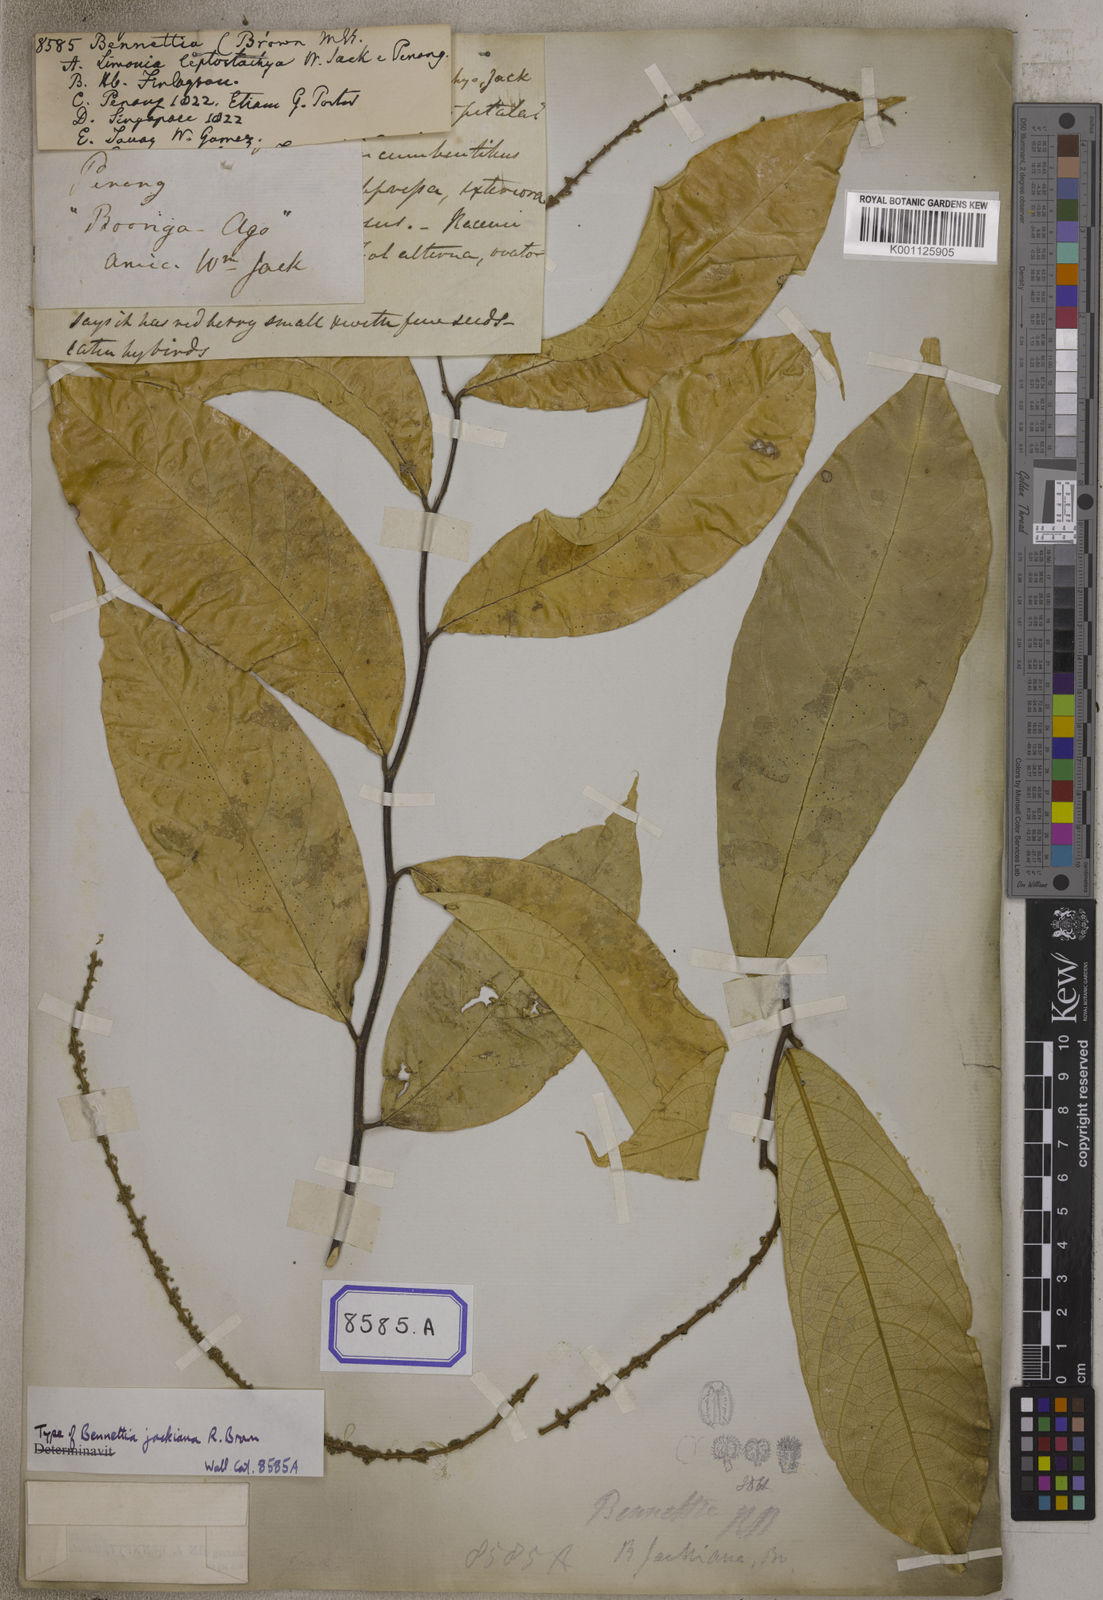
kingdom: Plantae
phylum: Tracheophyta
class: Magnoliopsida
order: Malpighiales
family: Pandaceae
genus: Galearia
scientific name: Galearia
